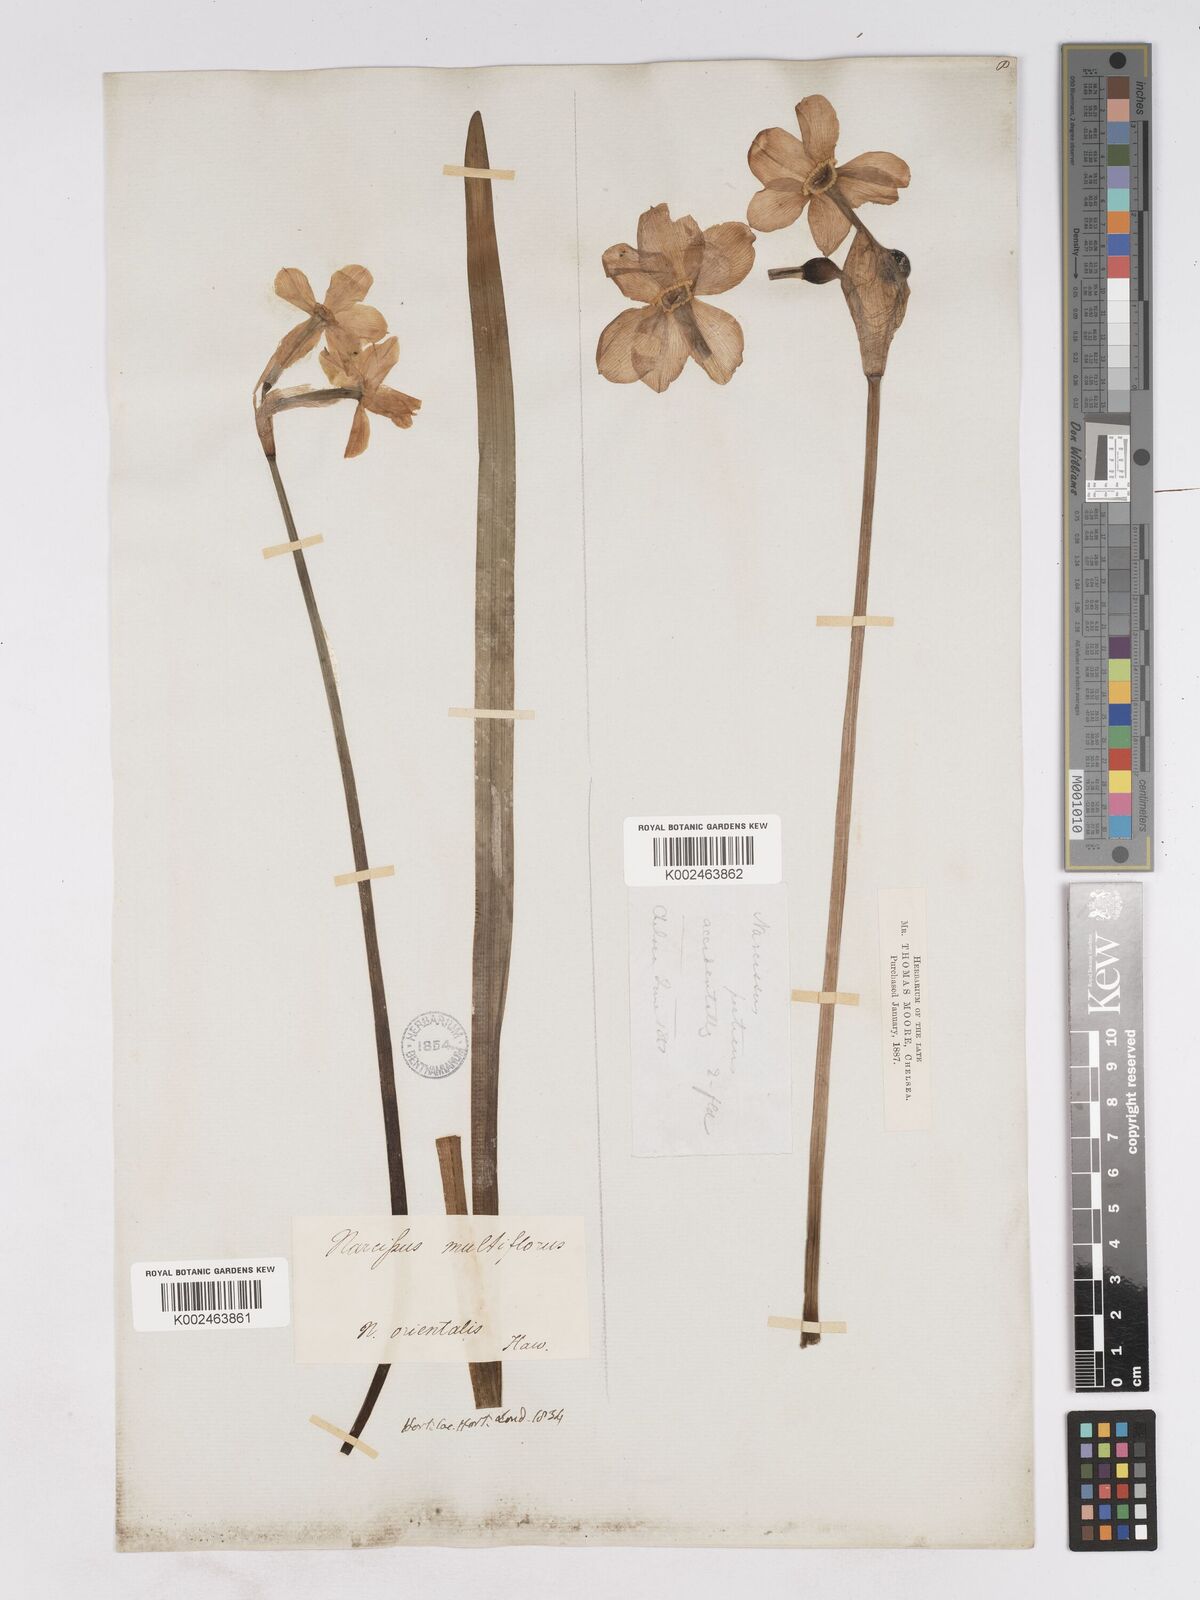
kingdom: Plantae
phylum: Tracheophyta
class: Liliopsida
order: Asparagales
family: Amaryllidaceae
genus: Narcissus
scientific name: Narcissus
